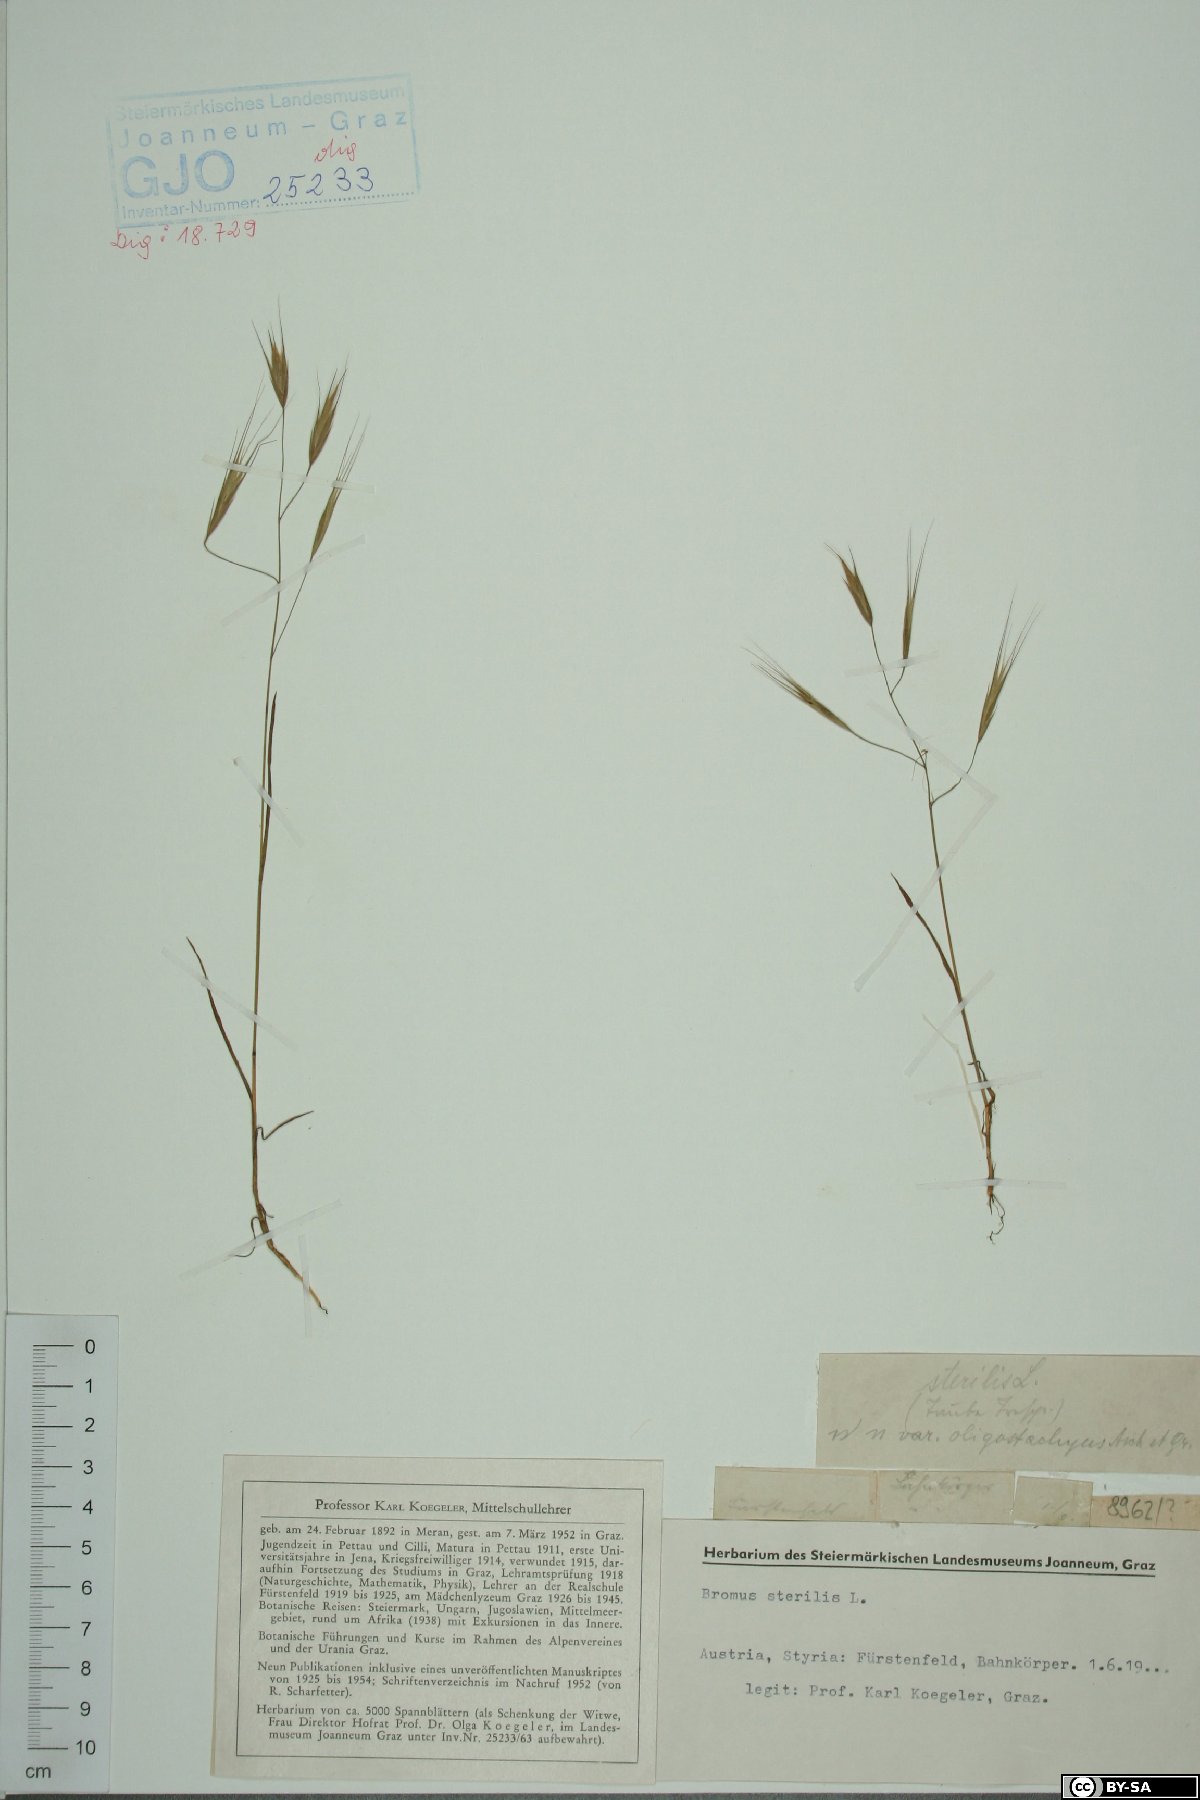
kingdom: Plantae
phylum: Tracheophyta
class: Liliopsida
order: Poales
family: Poaceae
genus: Bromus
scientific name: Bromus sterilis
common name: Poverty brome
